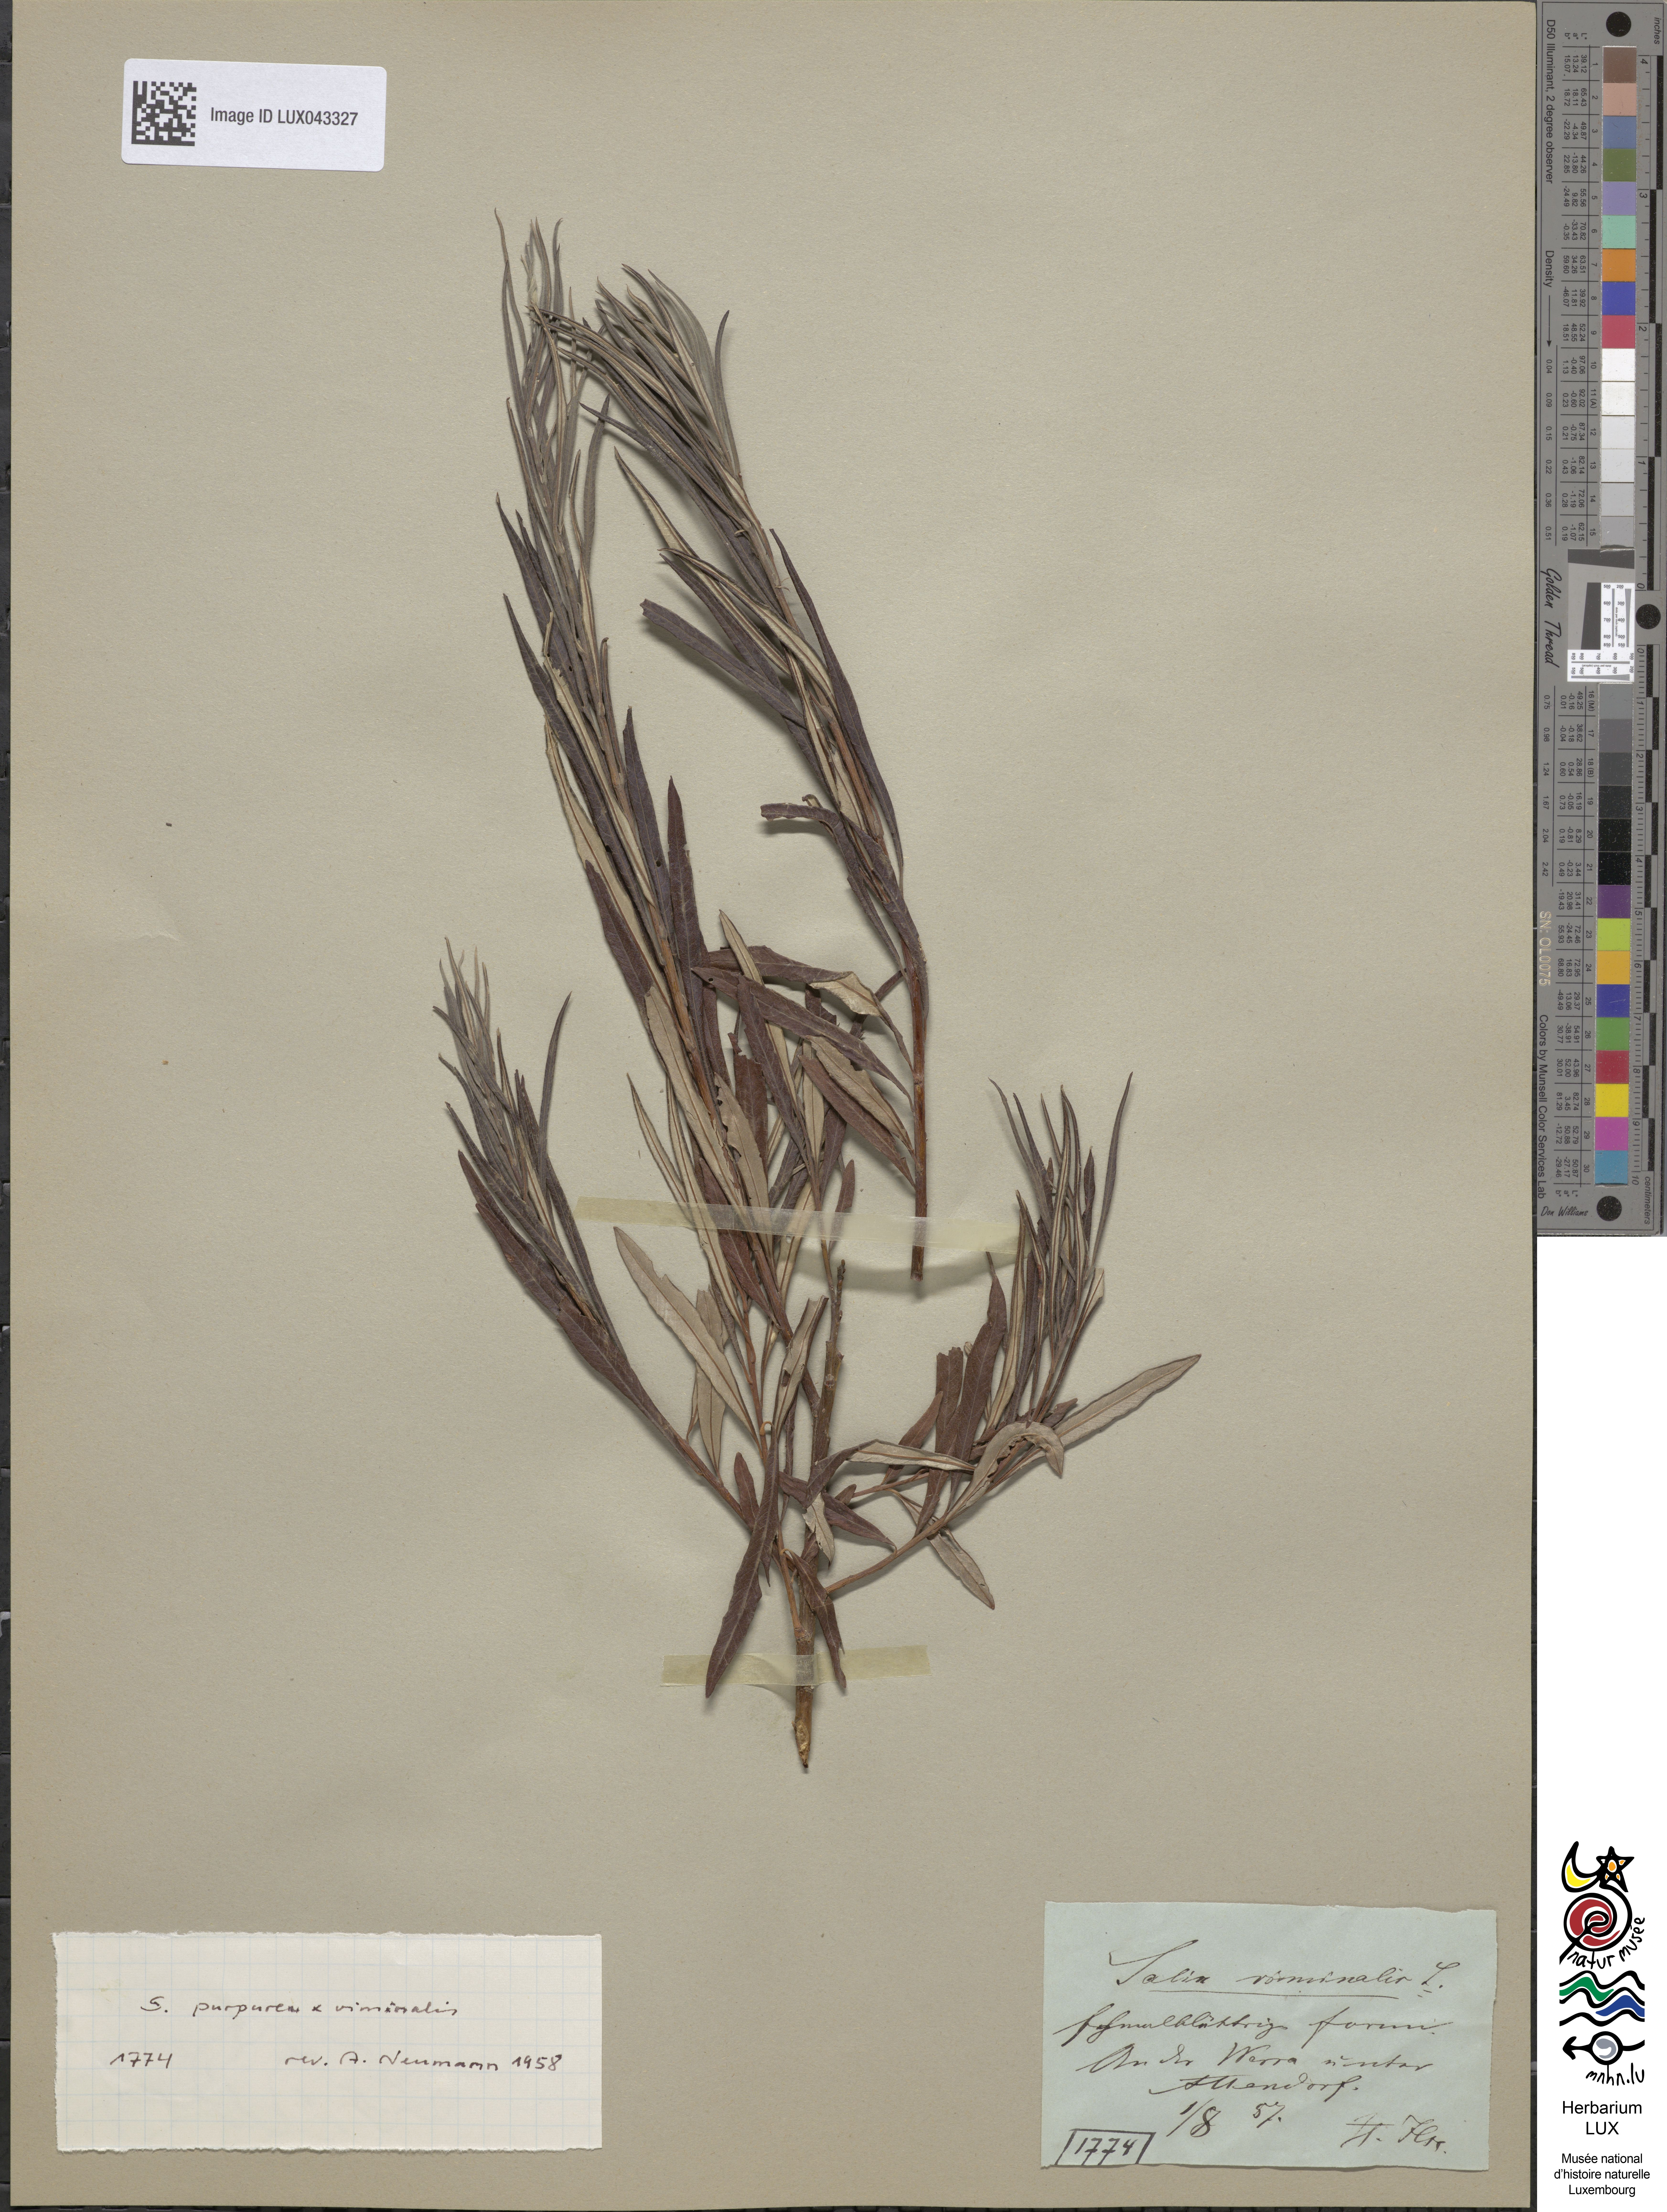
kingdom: Plantae
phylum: Tracheophyta
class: Magnoliopsida
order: Malpighiales
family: Salicaceae
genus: Salix
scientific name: Salix viminalis
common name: Osier
